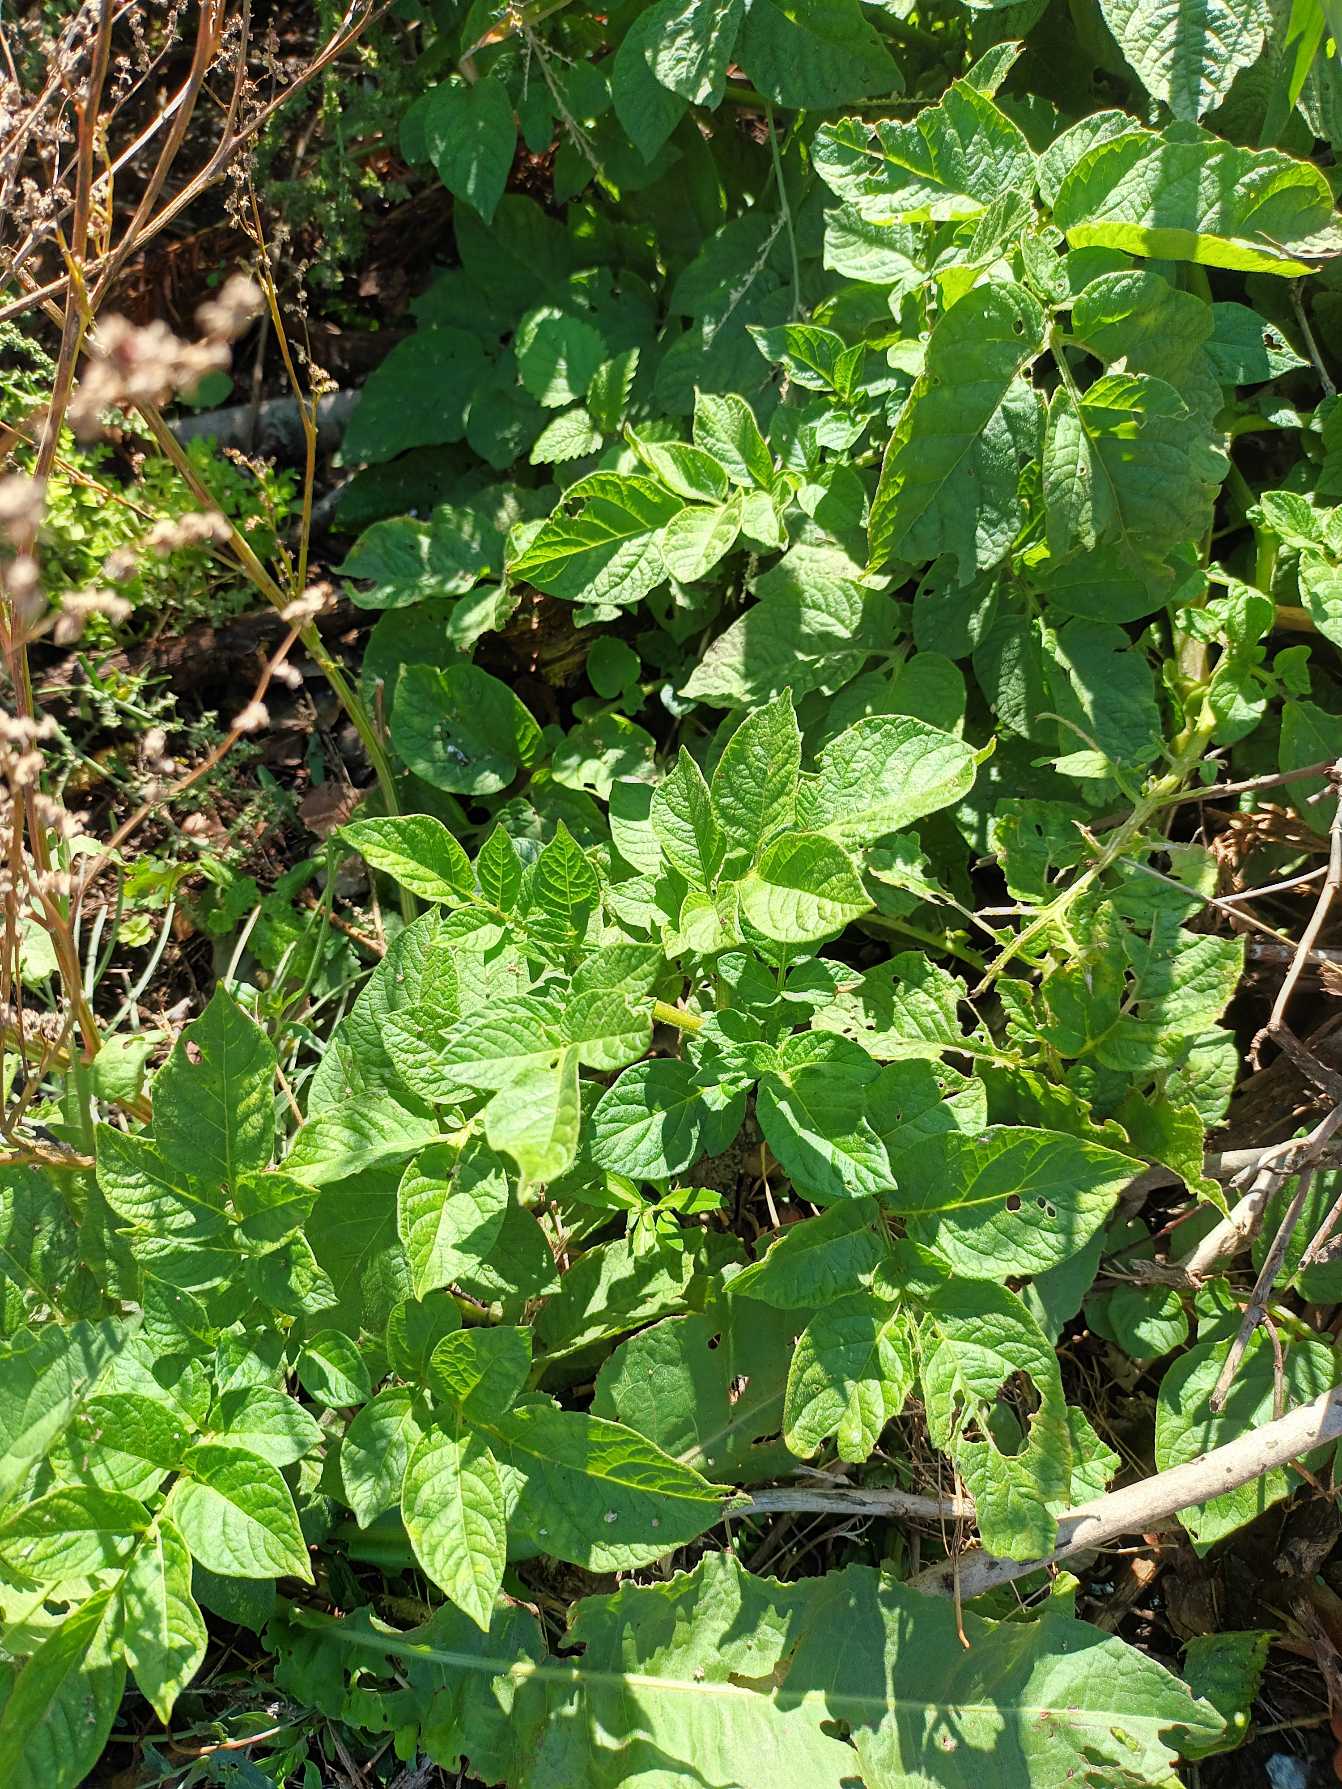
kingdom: Plantae
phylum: Tracheophyta
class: Magnoliopsida
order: Solanales
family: Solanaceae
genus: Solanum
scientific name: Solanum tuberosum
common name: Kartoffel
